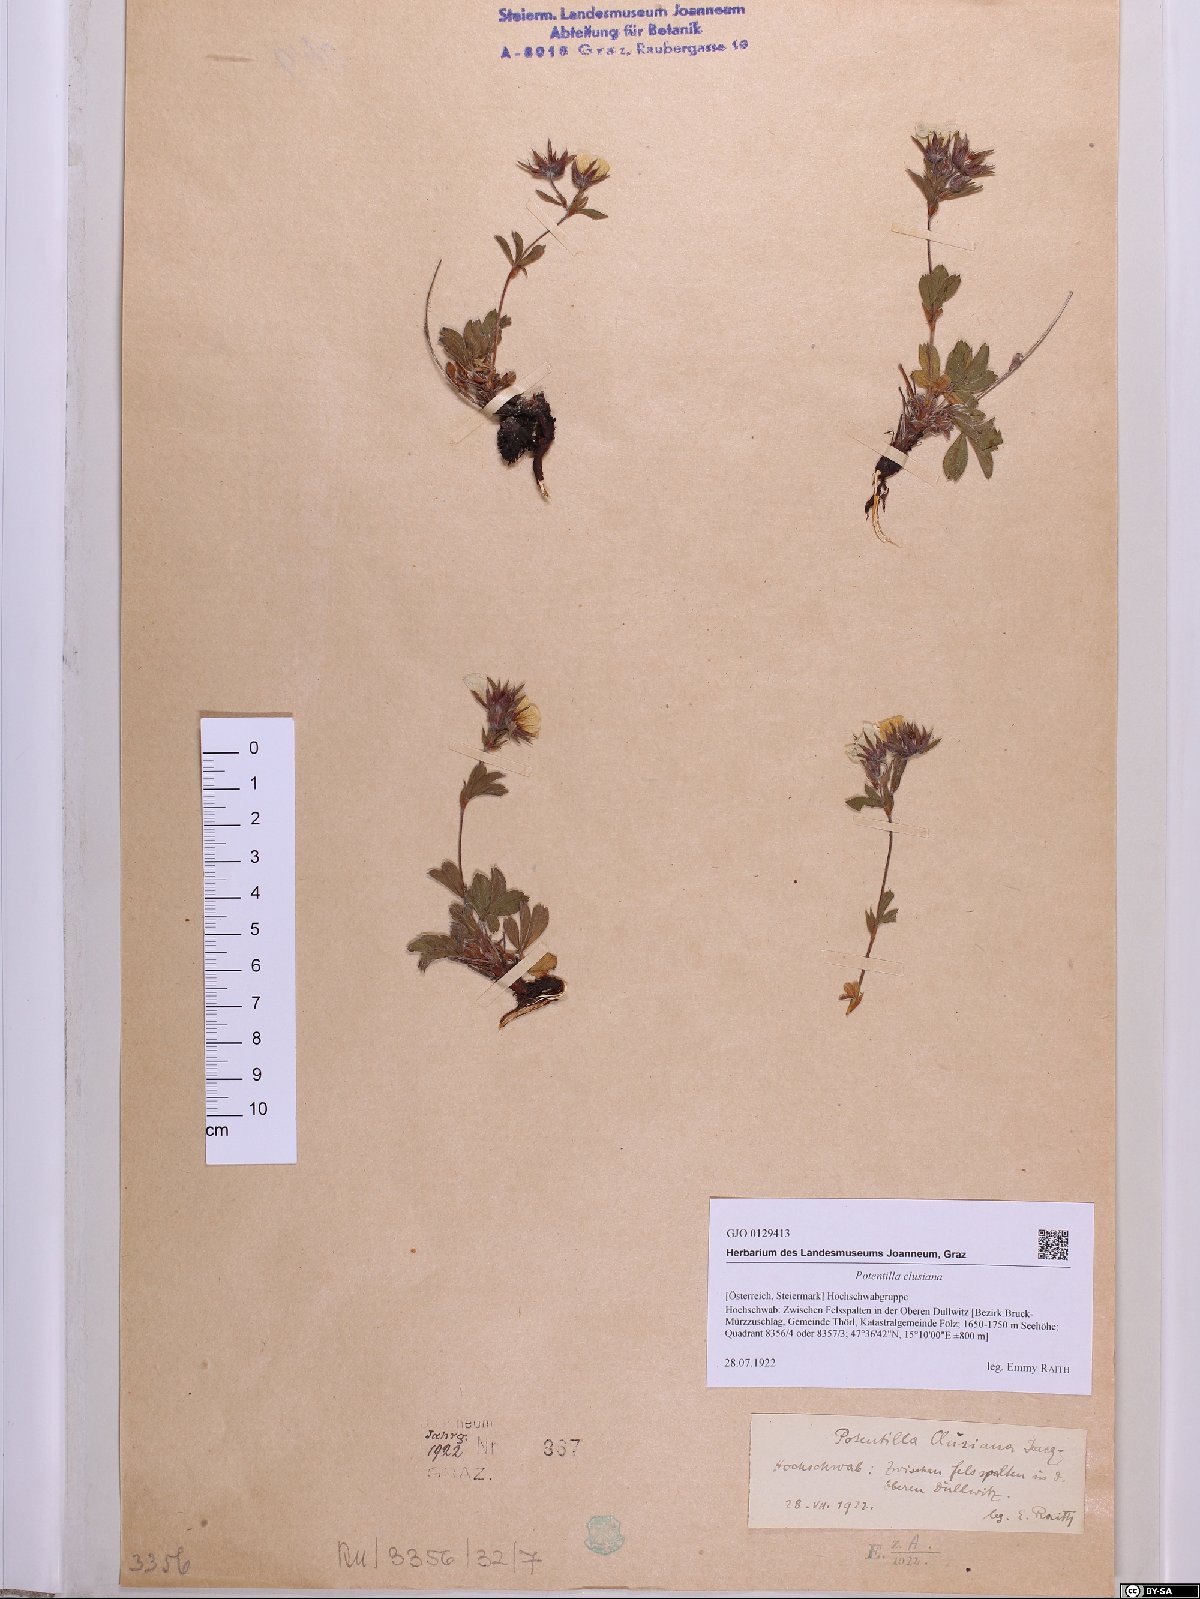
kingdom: Plantae
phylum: Tracheophyta
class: Magnoliopsida
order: Rosales
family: Rosaceae
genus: Potentilla
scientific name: Potentilla clusiana
